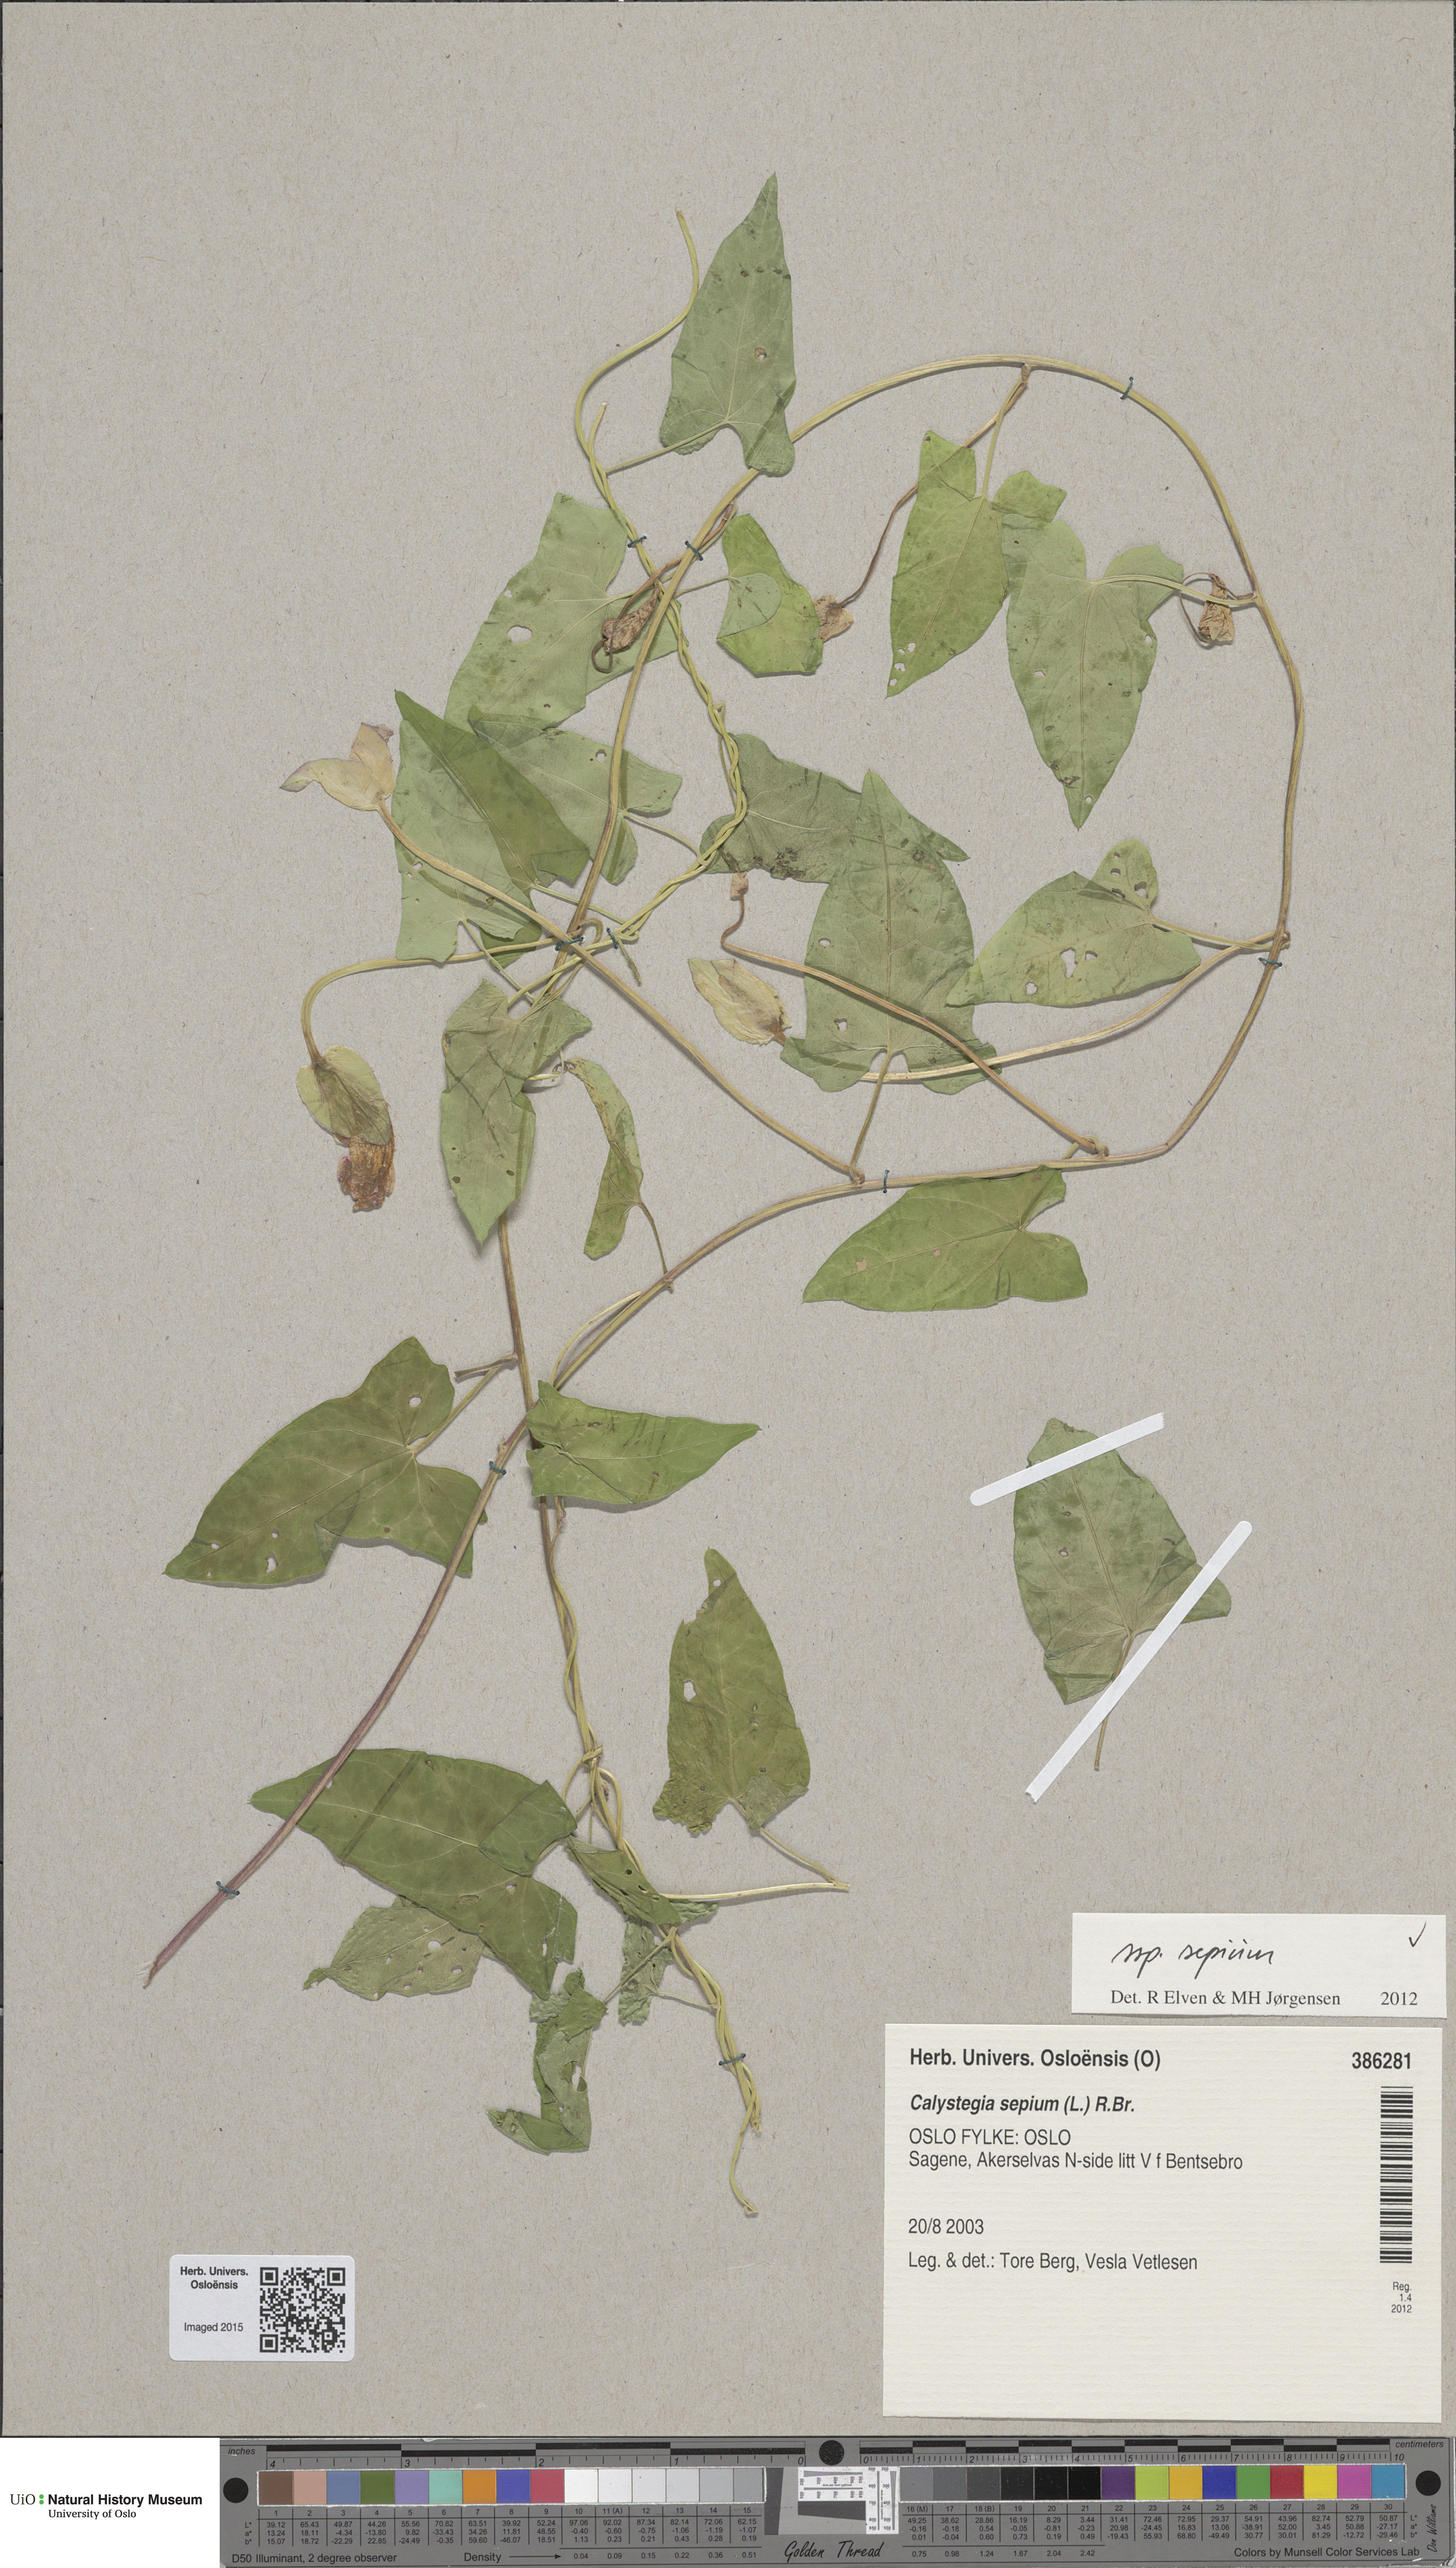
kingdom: Plantae
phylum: Tracheophyta
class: Magnoliopsida
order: Solanales
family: Convolvulaceae
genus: Calystegia
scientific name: Calystegia sepium
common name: Hedge bindweed
